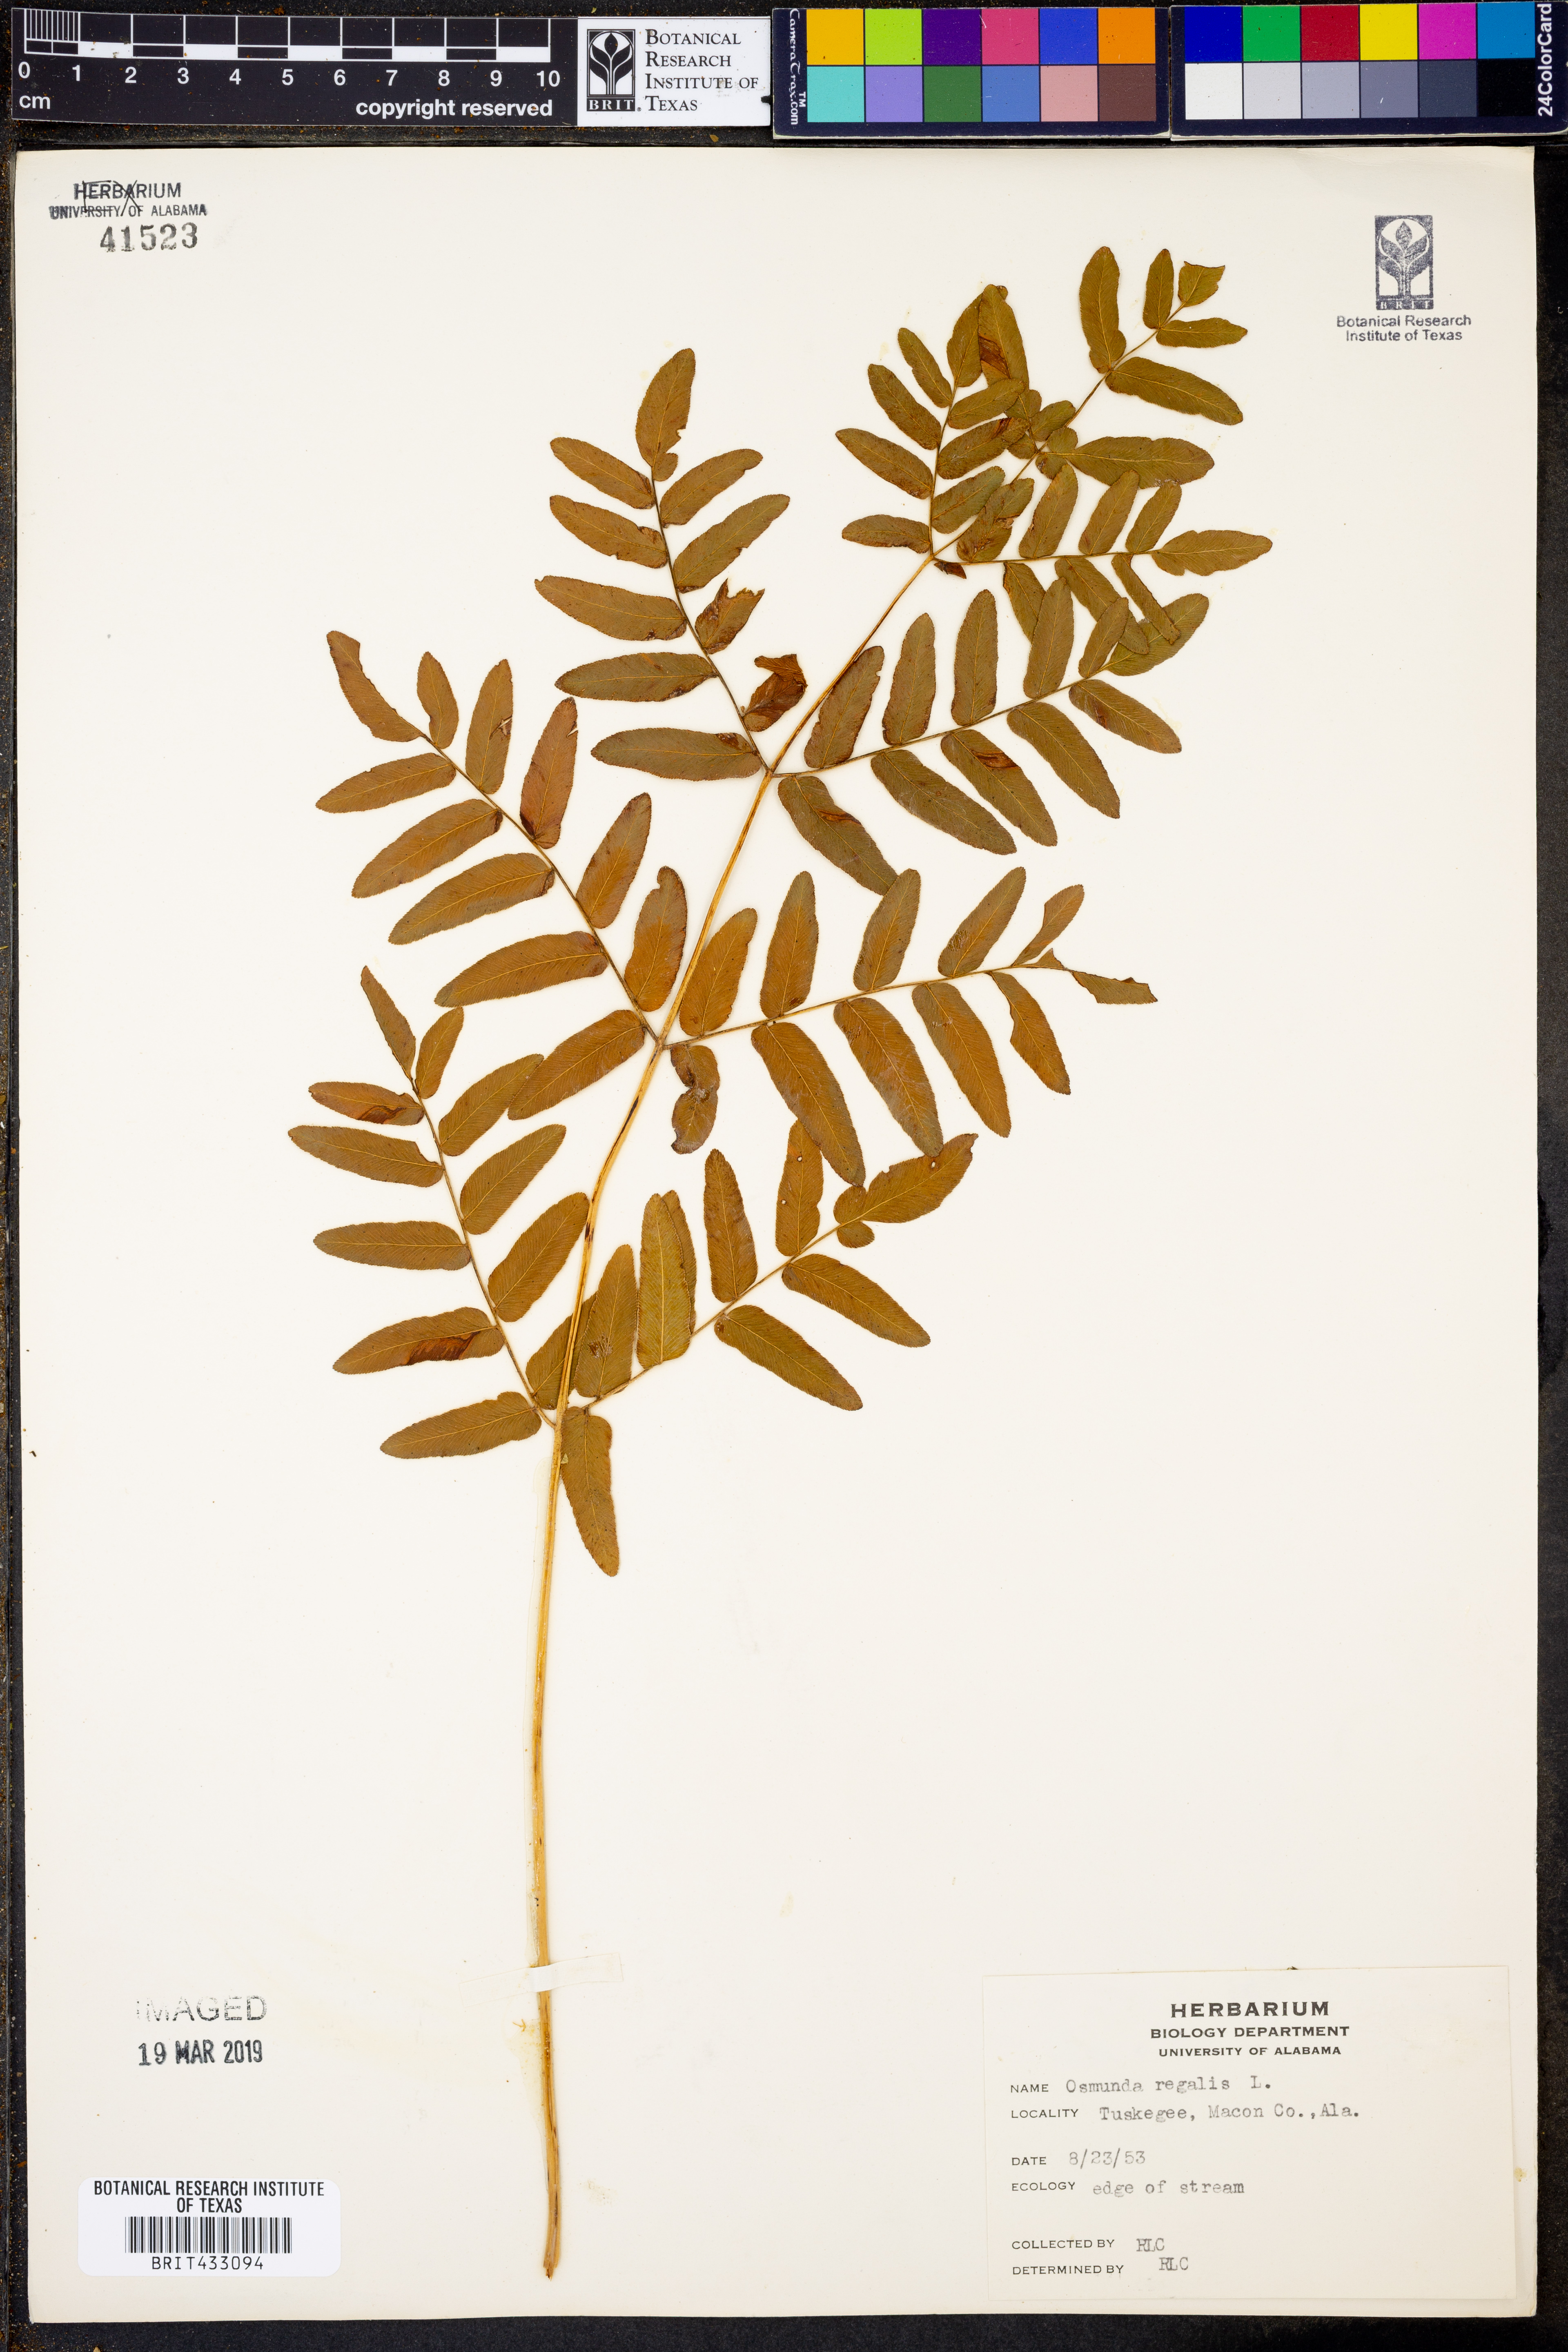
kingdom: Plantae
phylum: Tracheophyta
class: Polypodiopsida
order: Osmundales
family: Osmundaceae
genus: Osmunda
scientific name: Osmunda regalis
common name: Royal fern
